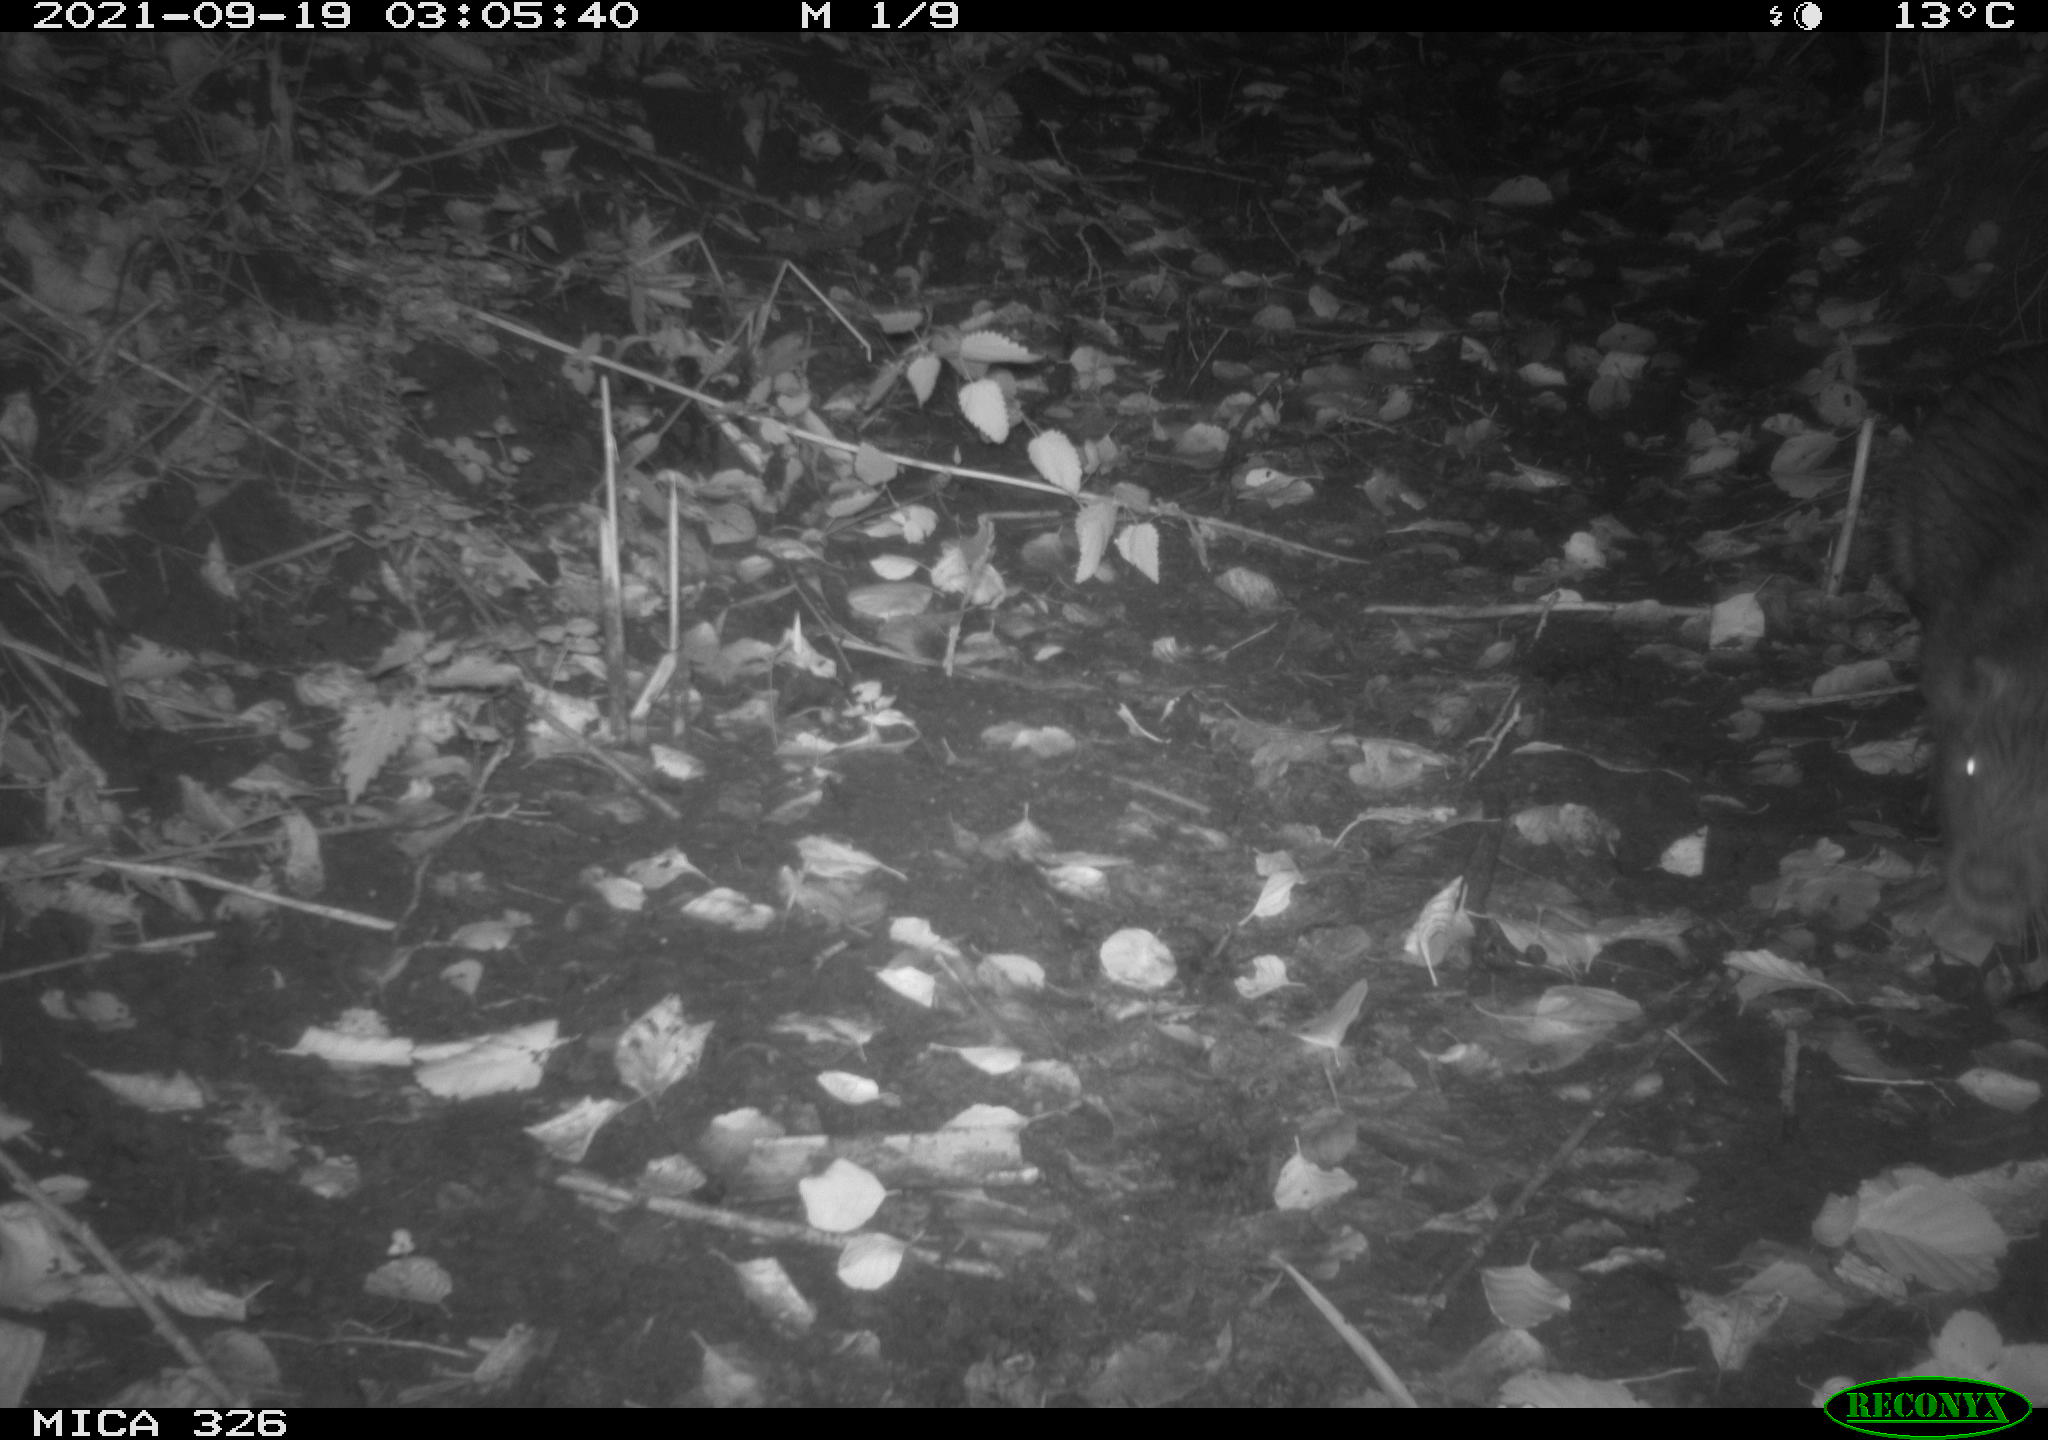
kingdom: Animalia
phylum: Chordata
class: Mammalia
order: Rodentia
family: Myocastoridae
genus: Myocastor
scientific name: Myocastor coypus
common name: Coypu
